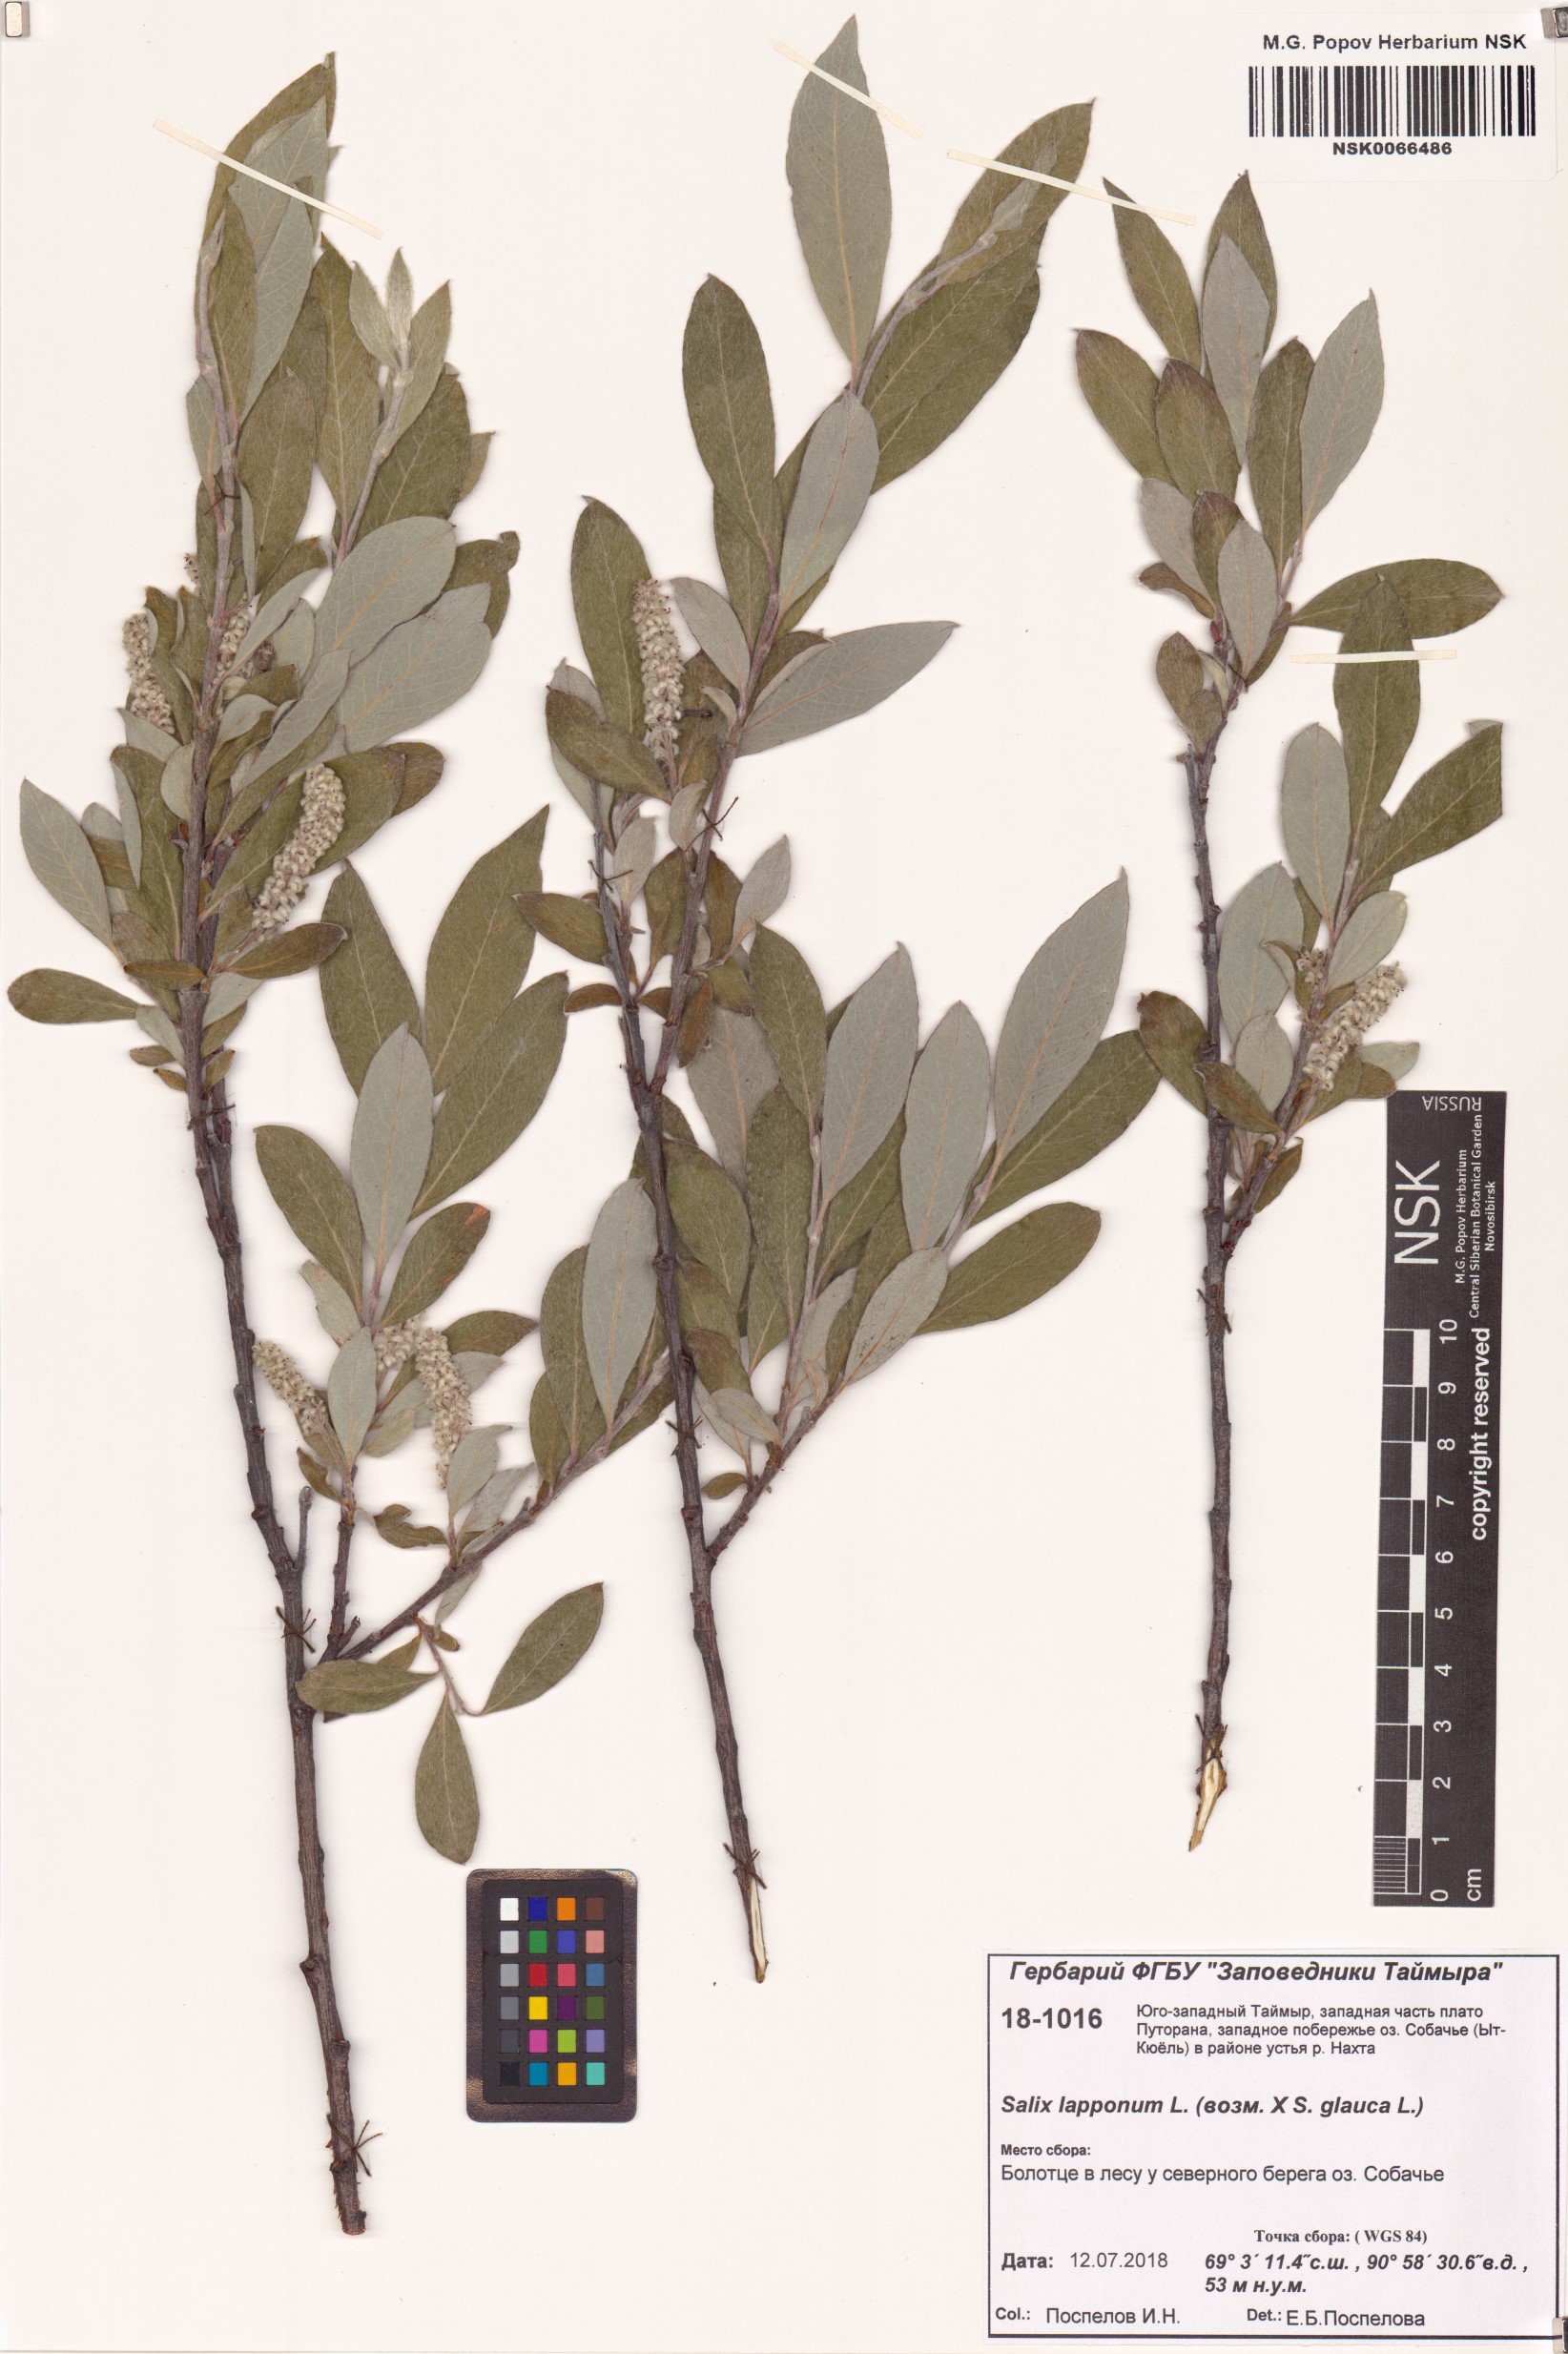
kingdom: Plantae
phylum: Tracheophyta
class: Magnoliopsida
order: Malpighiales
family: Salicaceae
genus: Salix
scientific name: Salix lapponum
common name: Downy willow
